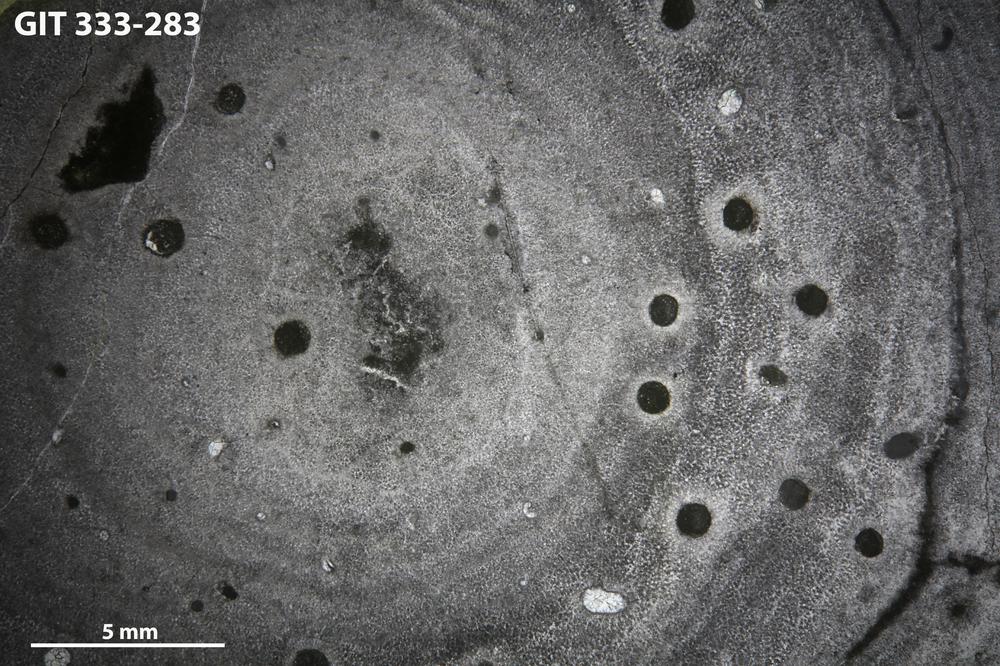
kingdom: Animalia
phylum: Porifera
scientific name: Porifera
